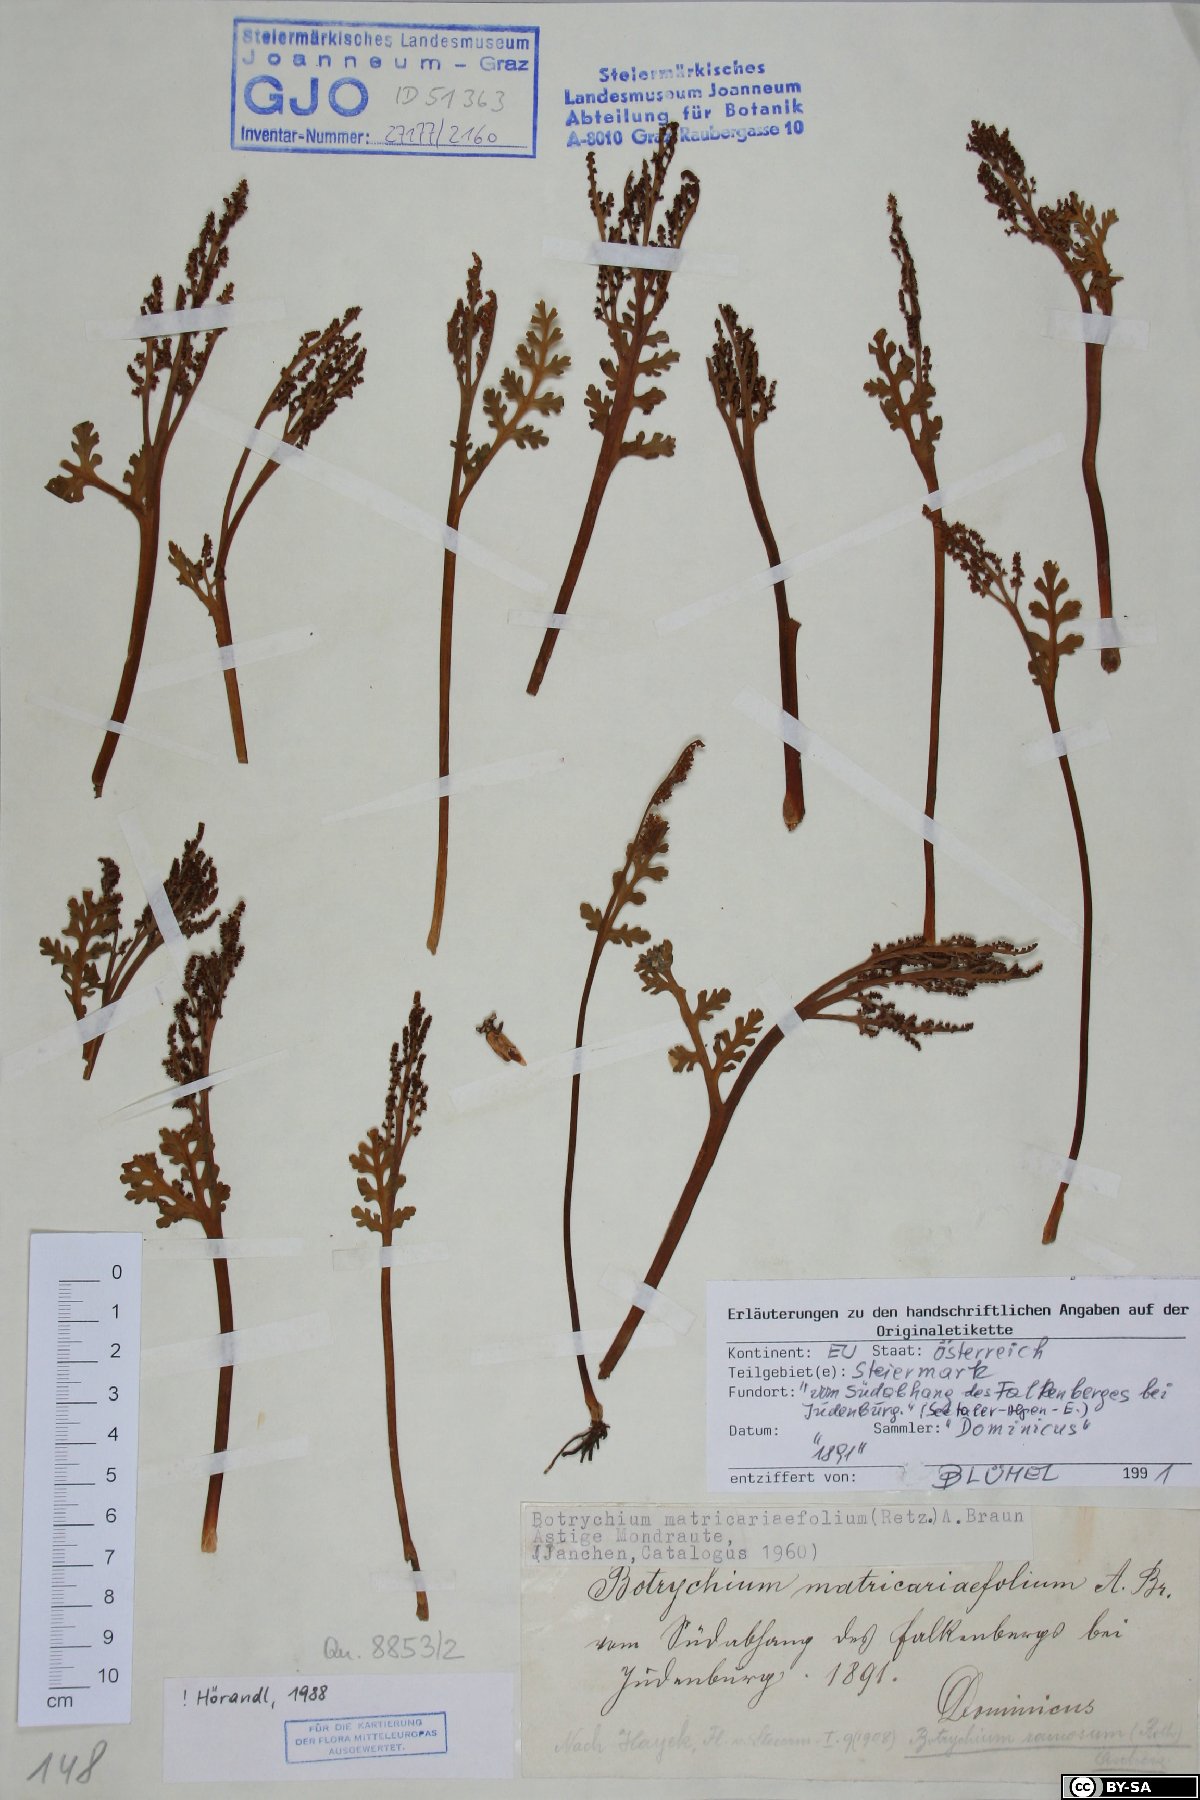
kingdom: Plantae
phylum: Tracheophyta
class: Polypodiopsida
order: Ophioglossales
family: Ophioglossaceae
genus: Botrychium
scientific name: Botrychium matricariifolium
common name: Branched moonwort
